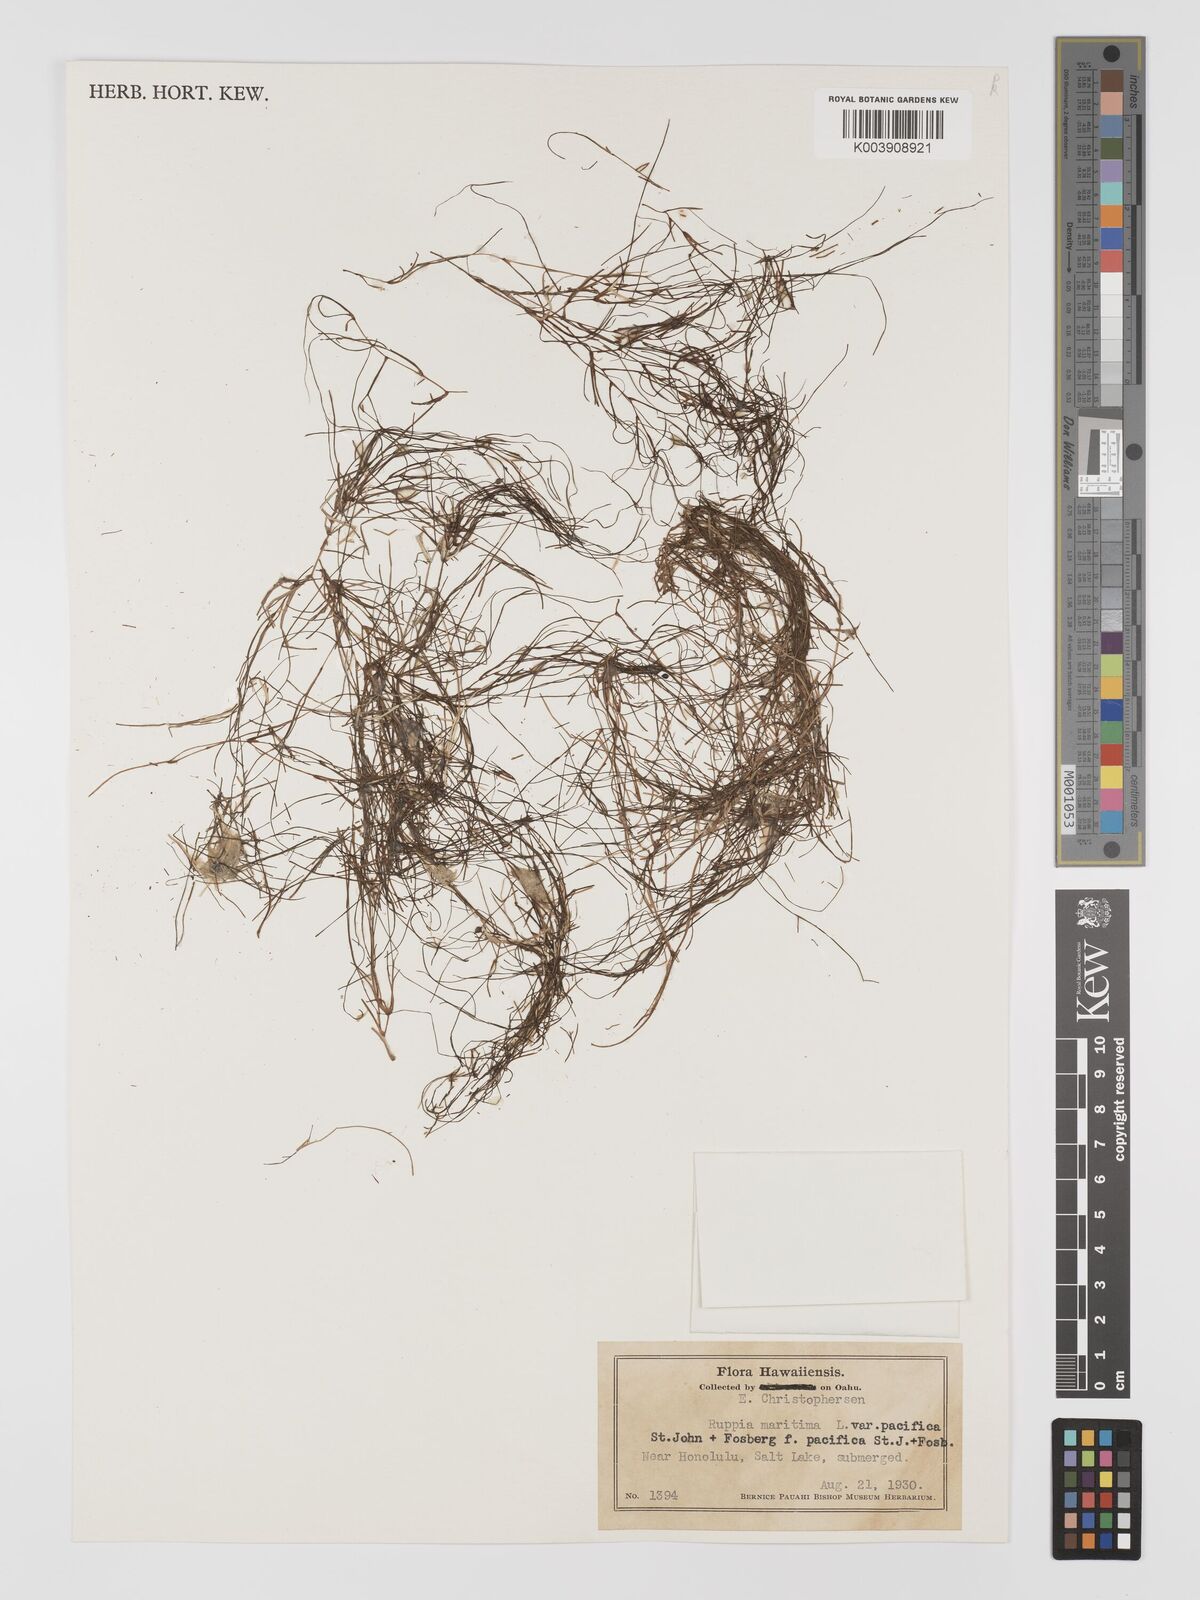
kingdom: Plantae
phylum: Tracheophyta
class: Liliopsida
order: Alismatales
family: Ruppiaceae
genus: Ruppia
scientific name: Ruppia maritima
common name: Beaked tasselweed
